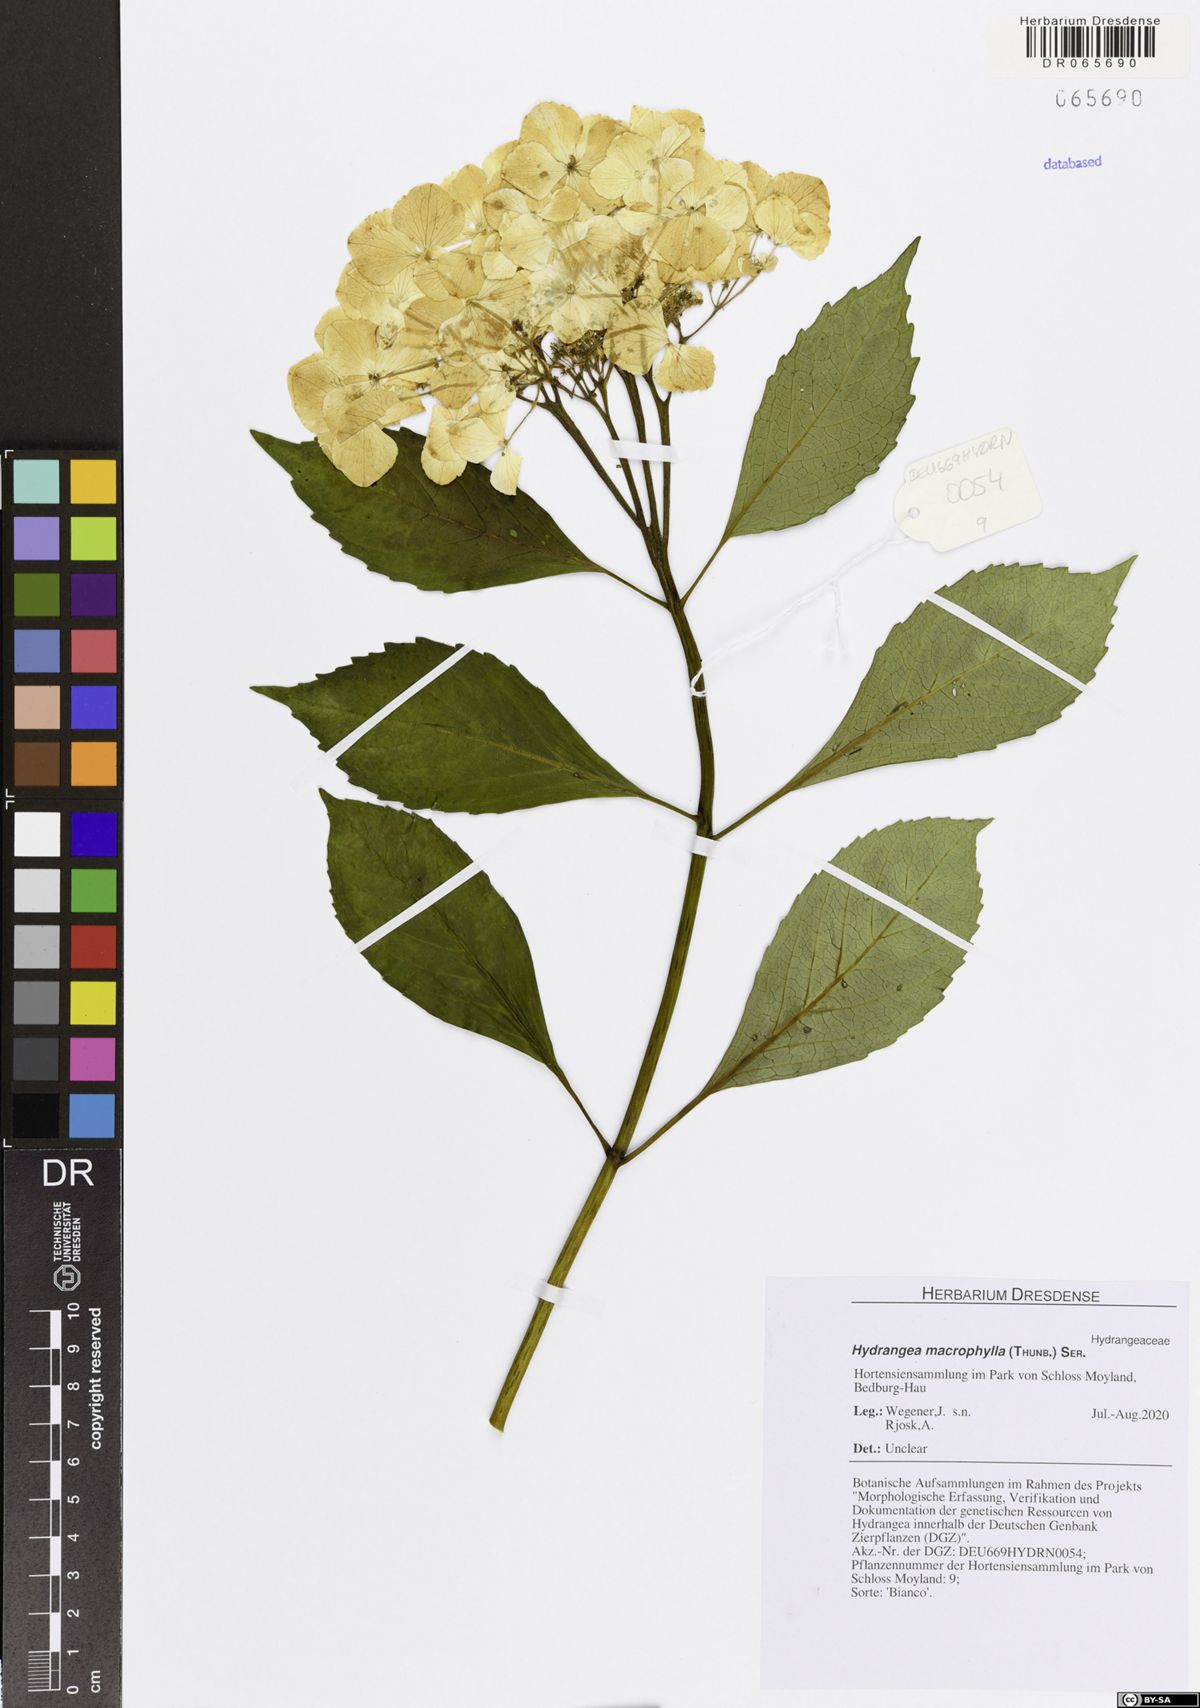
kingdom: Plantae
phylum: Tracheophyta
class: Magnoliopsida
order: Cornales
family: Hydrangeaceae
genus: Hydrangea
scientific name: Hydrangea macrophylla
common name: Hydrangea
